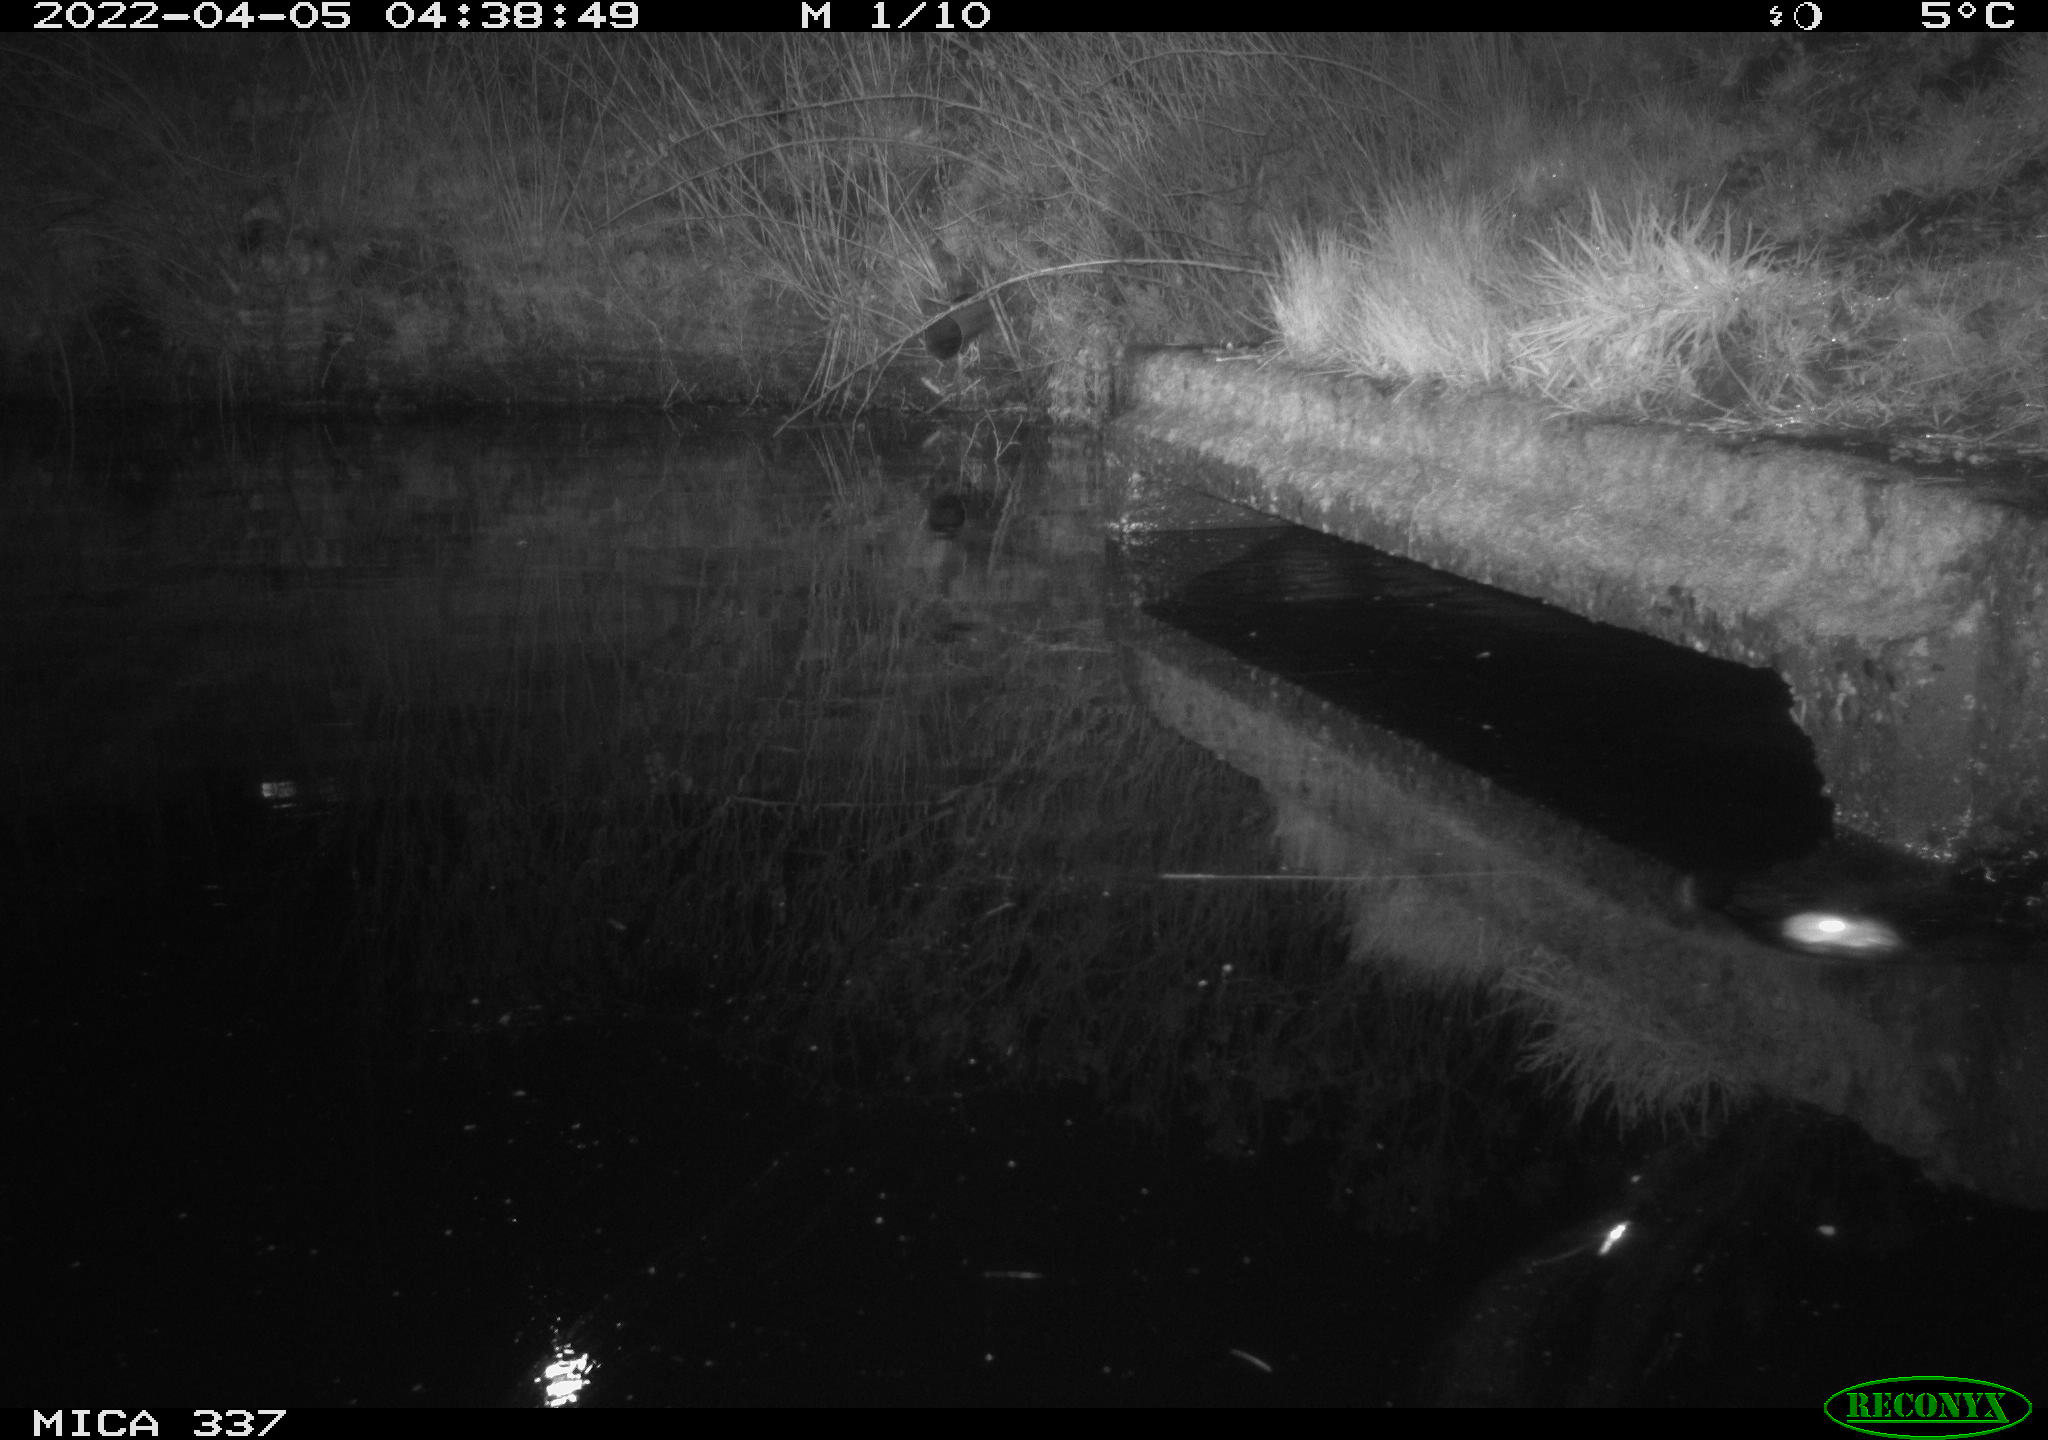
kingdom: Animalia
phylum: Chordata
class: Mammalia
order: Rodentia
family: Muridae
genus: Rattus
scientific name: Rattus norvegicus
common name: Brown rat
